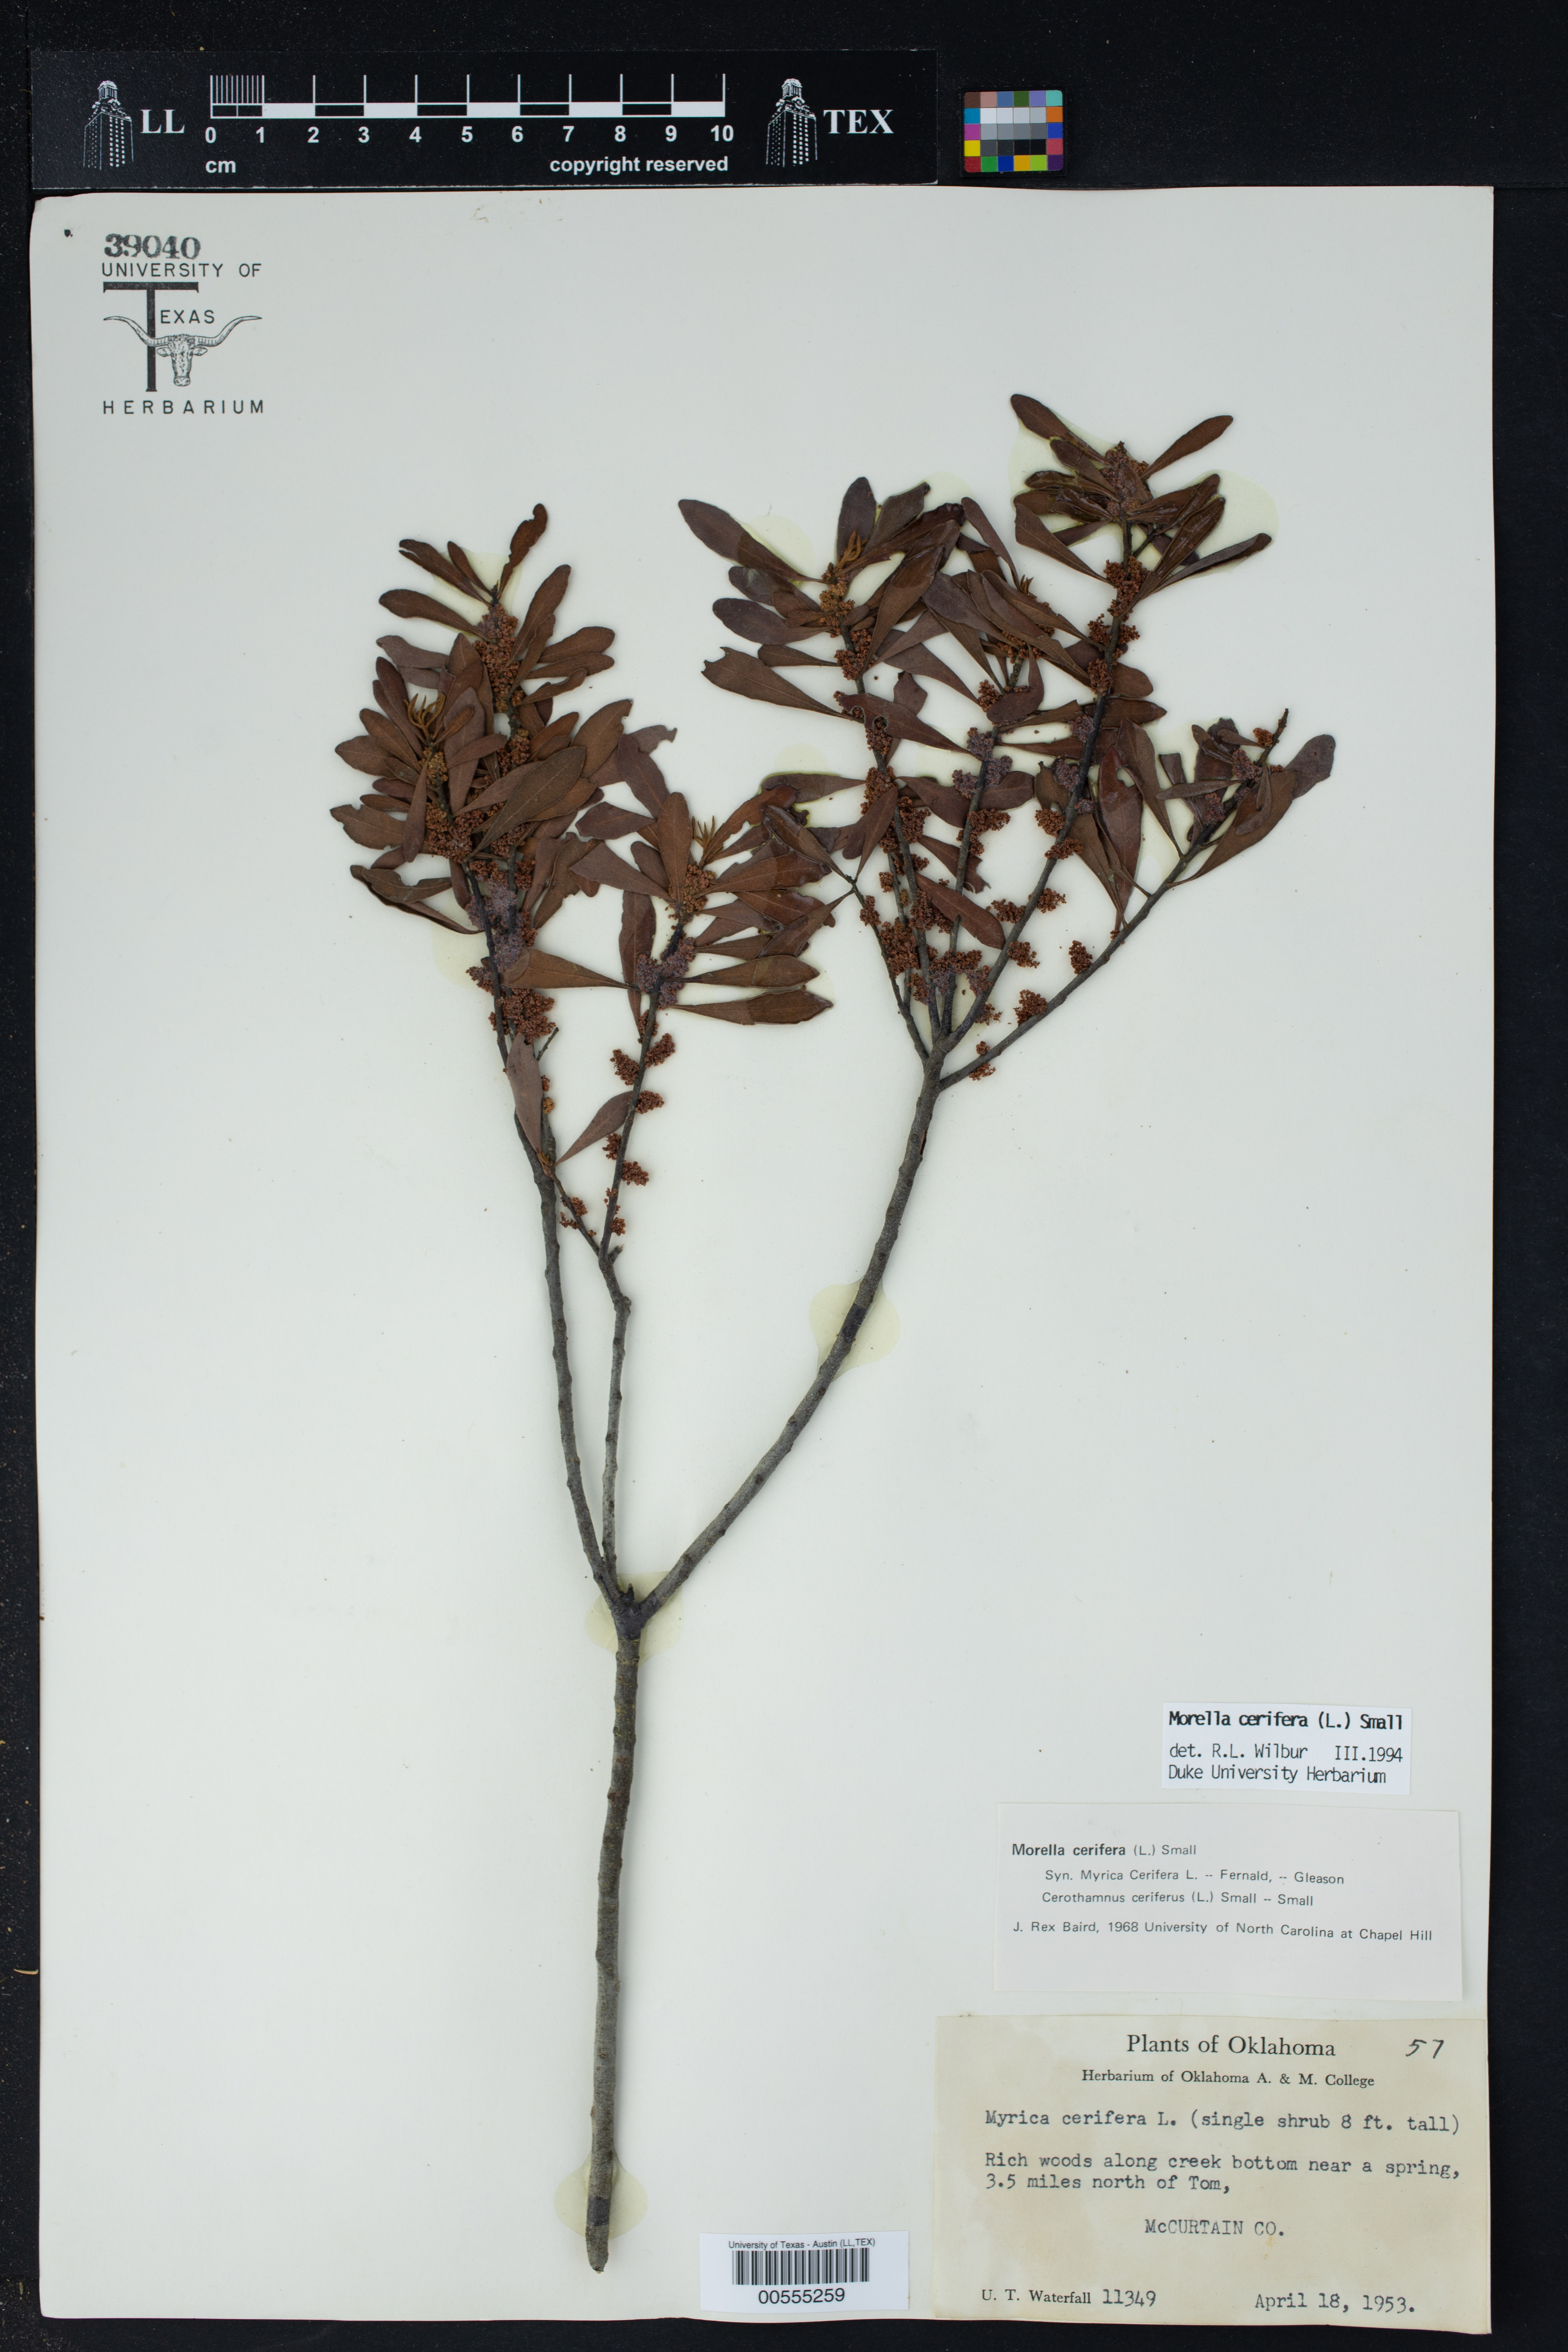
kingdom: Plantae
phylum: Tracheophyta
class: Magnoliopsida
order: Fagales
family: Myricaceae
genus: Morella
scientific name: Morella cerifera
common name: Wax myrtle
